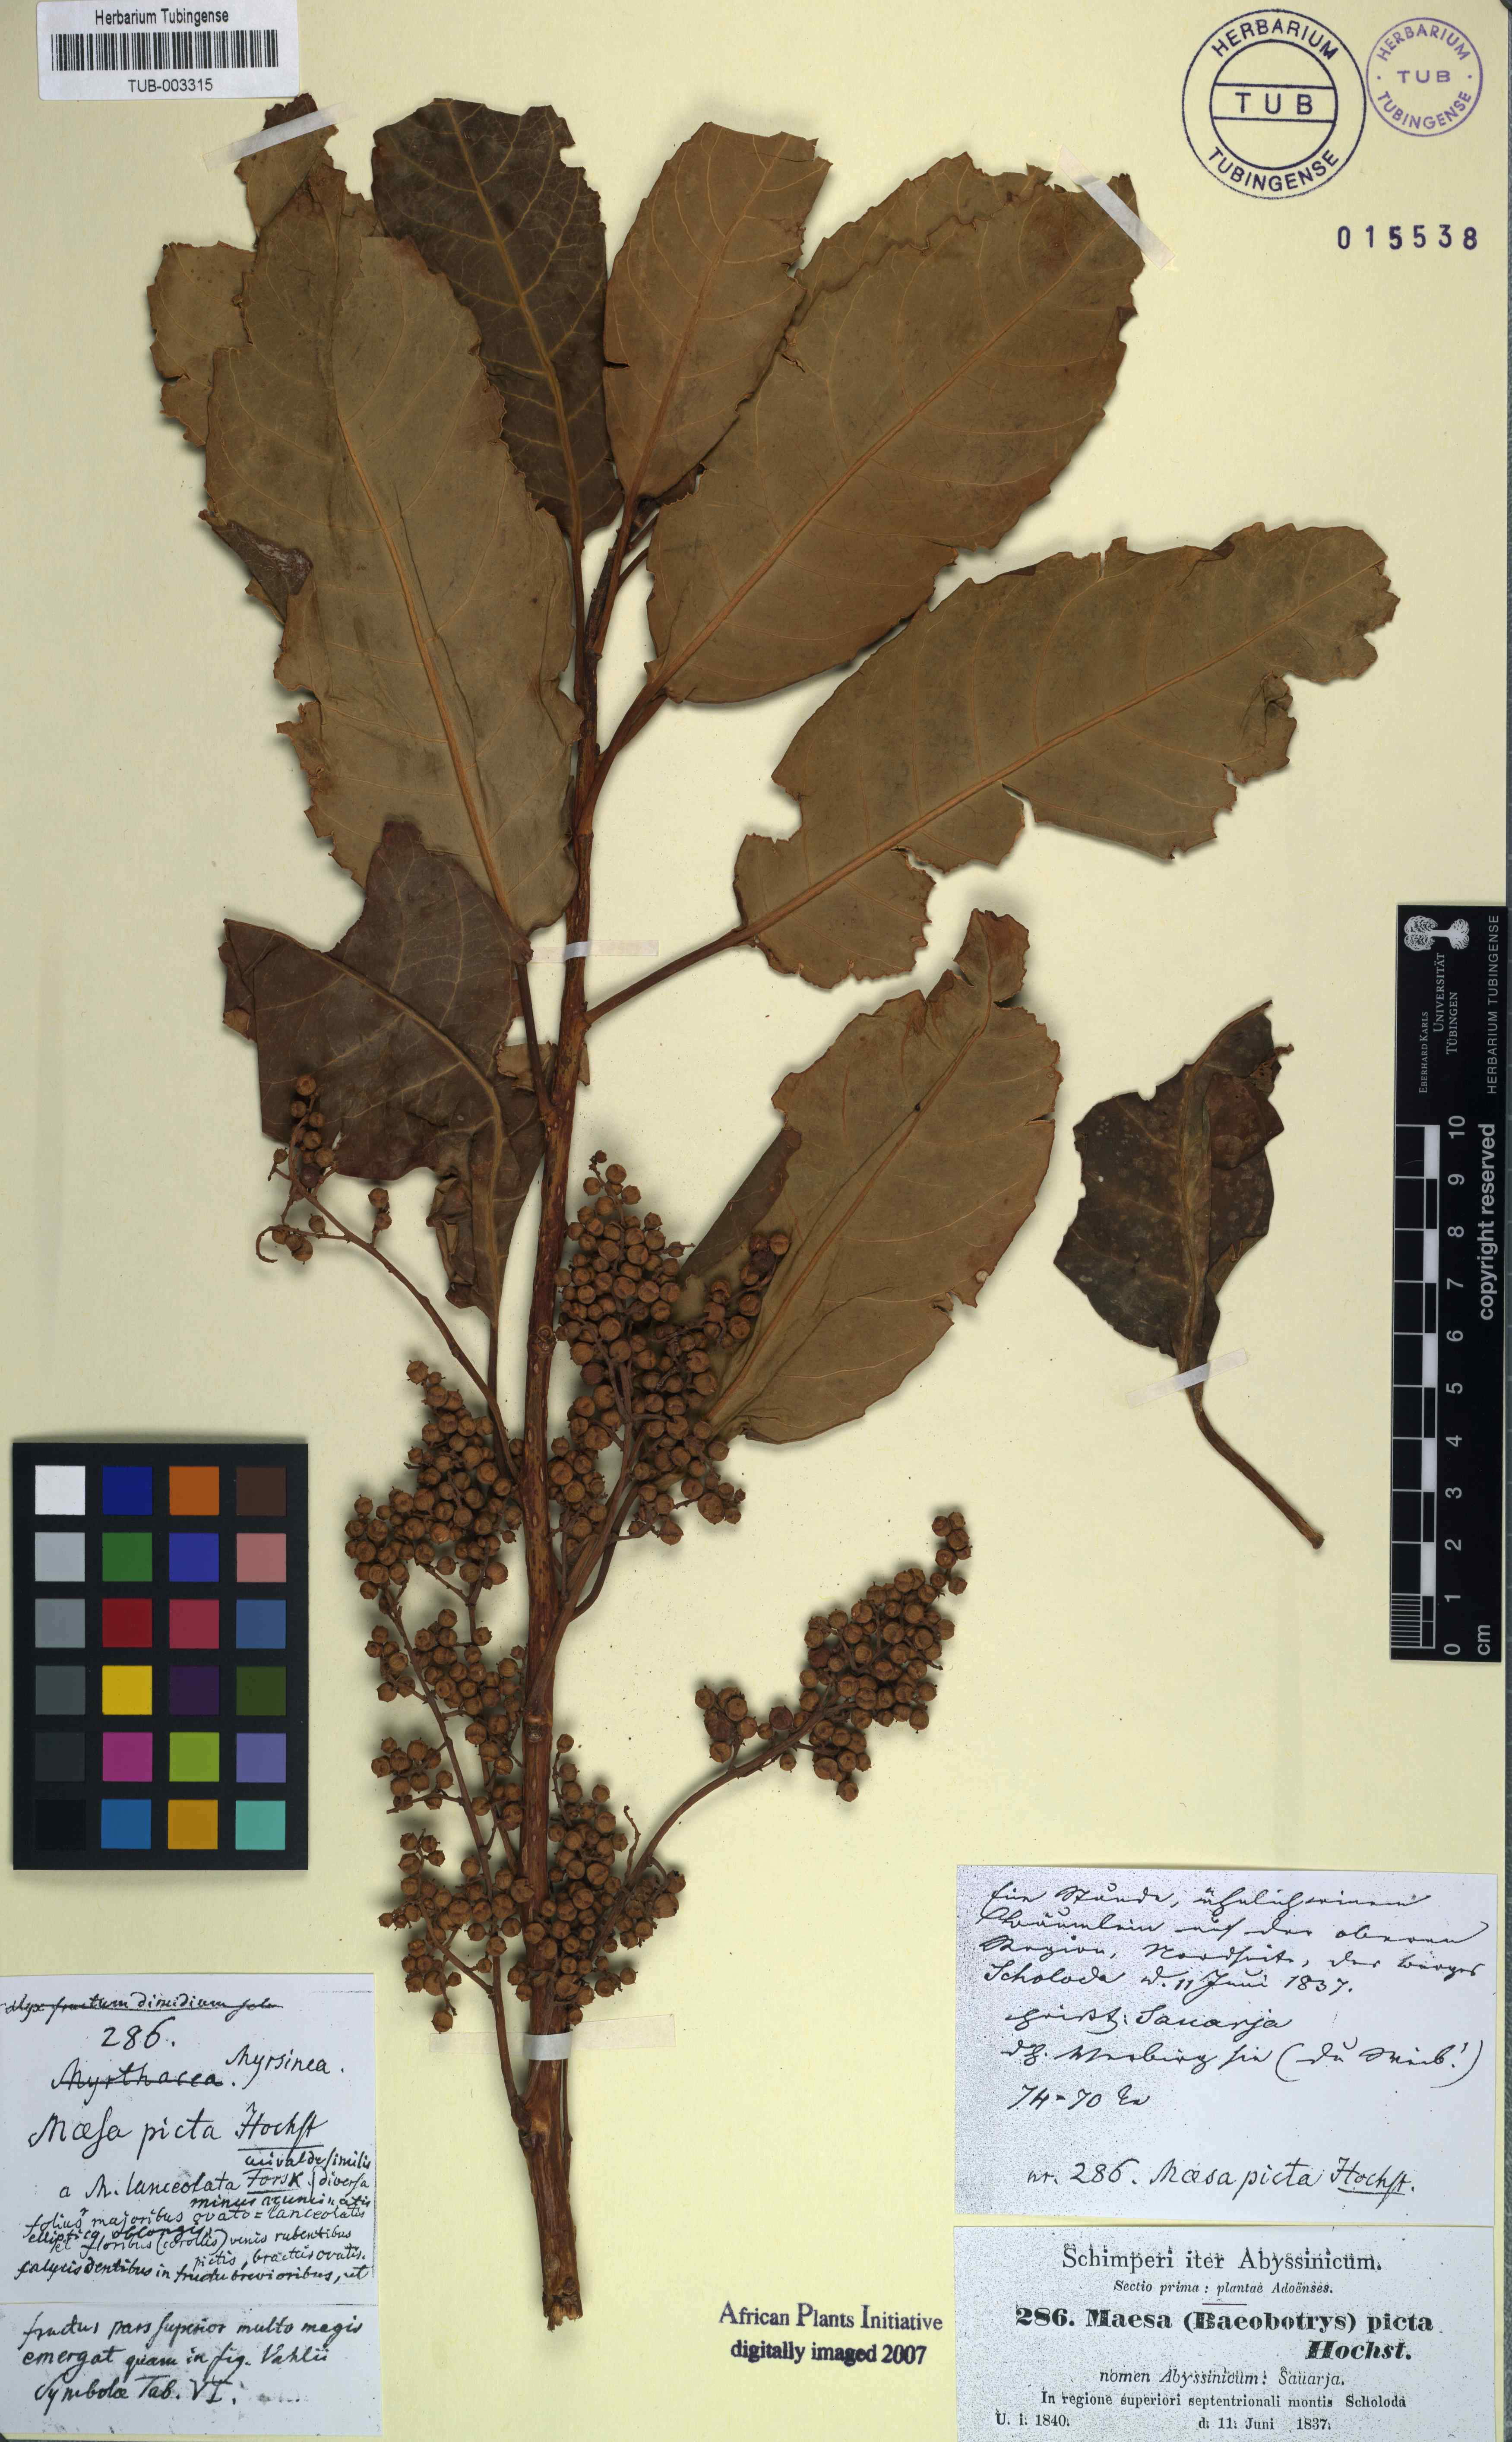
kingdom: Plantae
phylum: Tracheophyta
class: Magnoliopsida
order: Ericales
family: Primulaceae
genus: Maesa
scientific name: Maesa lanceolata
